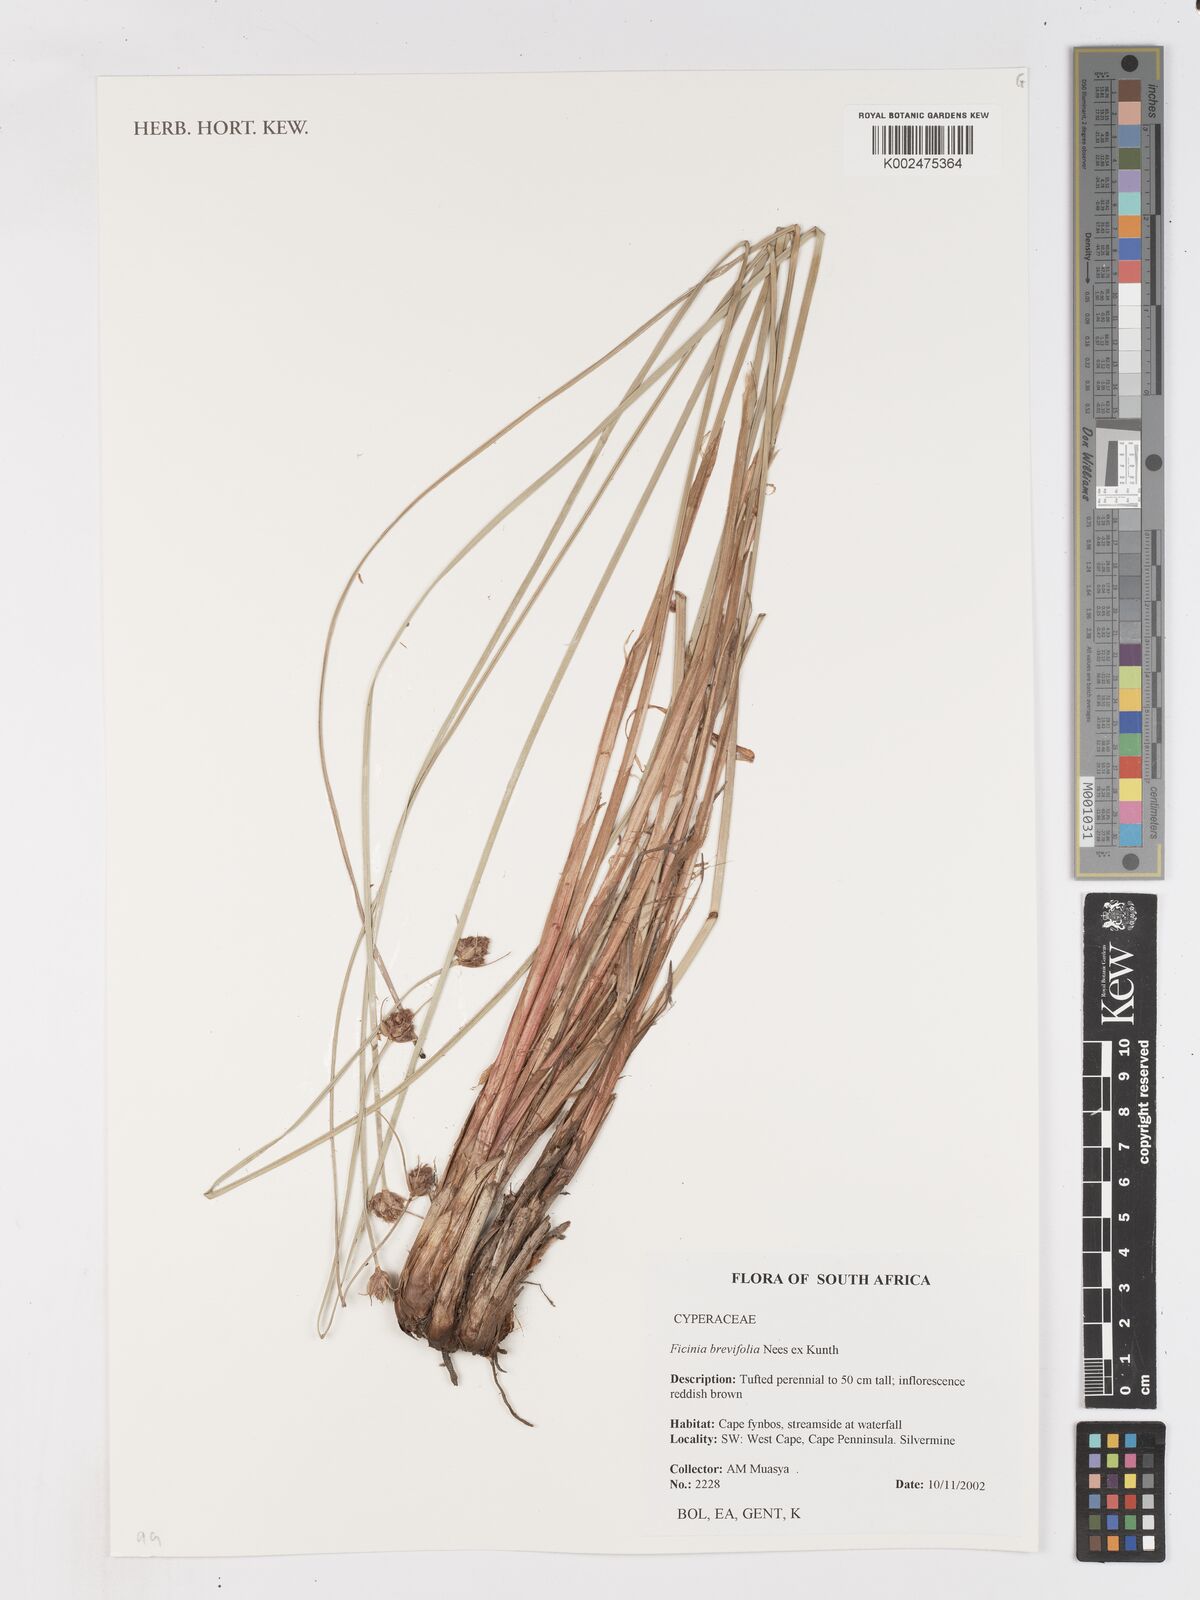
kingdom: Plantae
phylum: Tracheophyta
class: Liliopsida
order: Poales
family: Cyperaceae
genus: Ficinia
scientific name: Ficinia brevifolia
